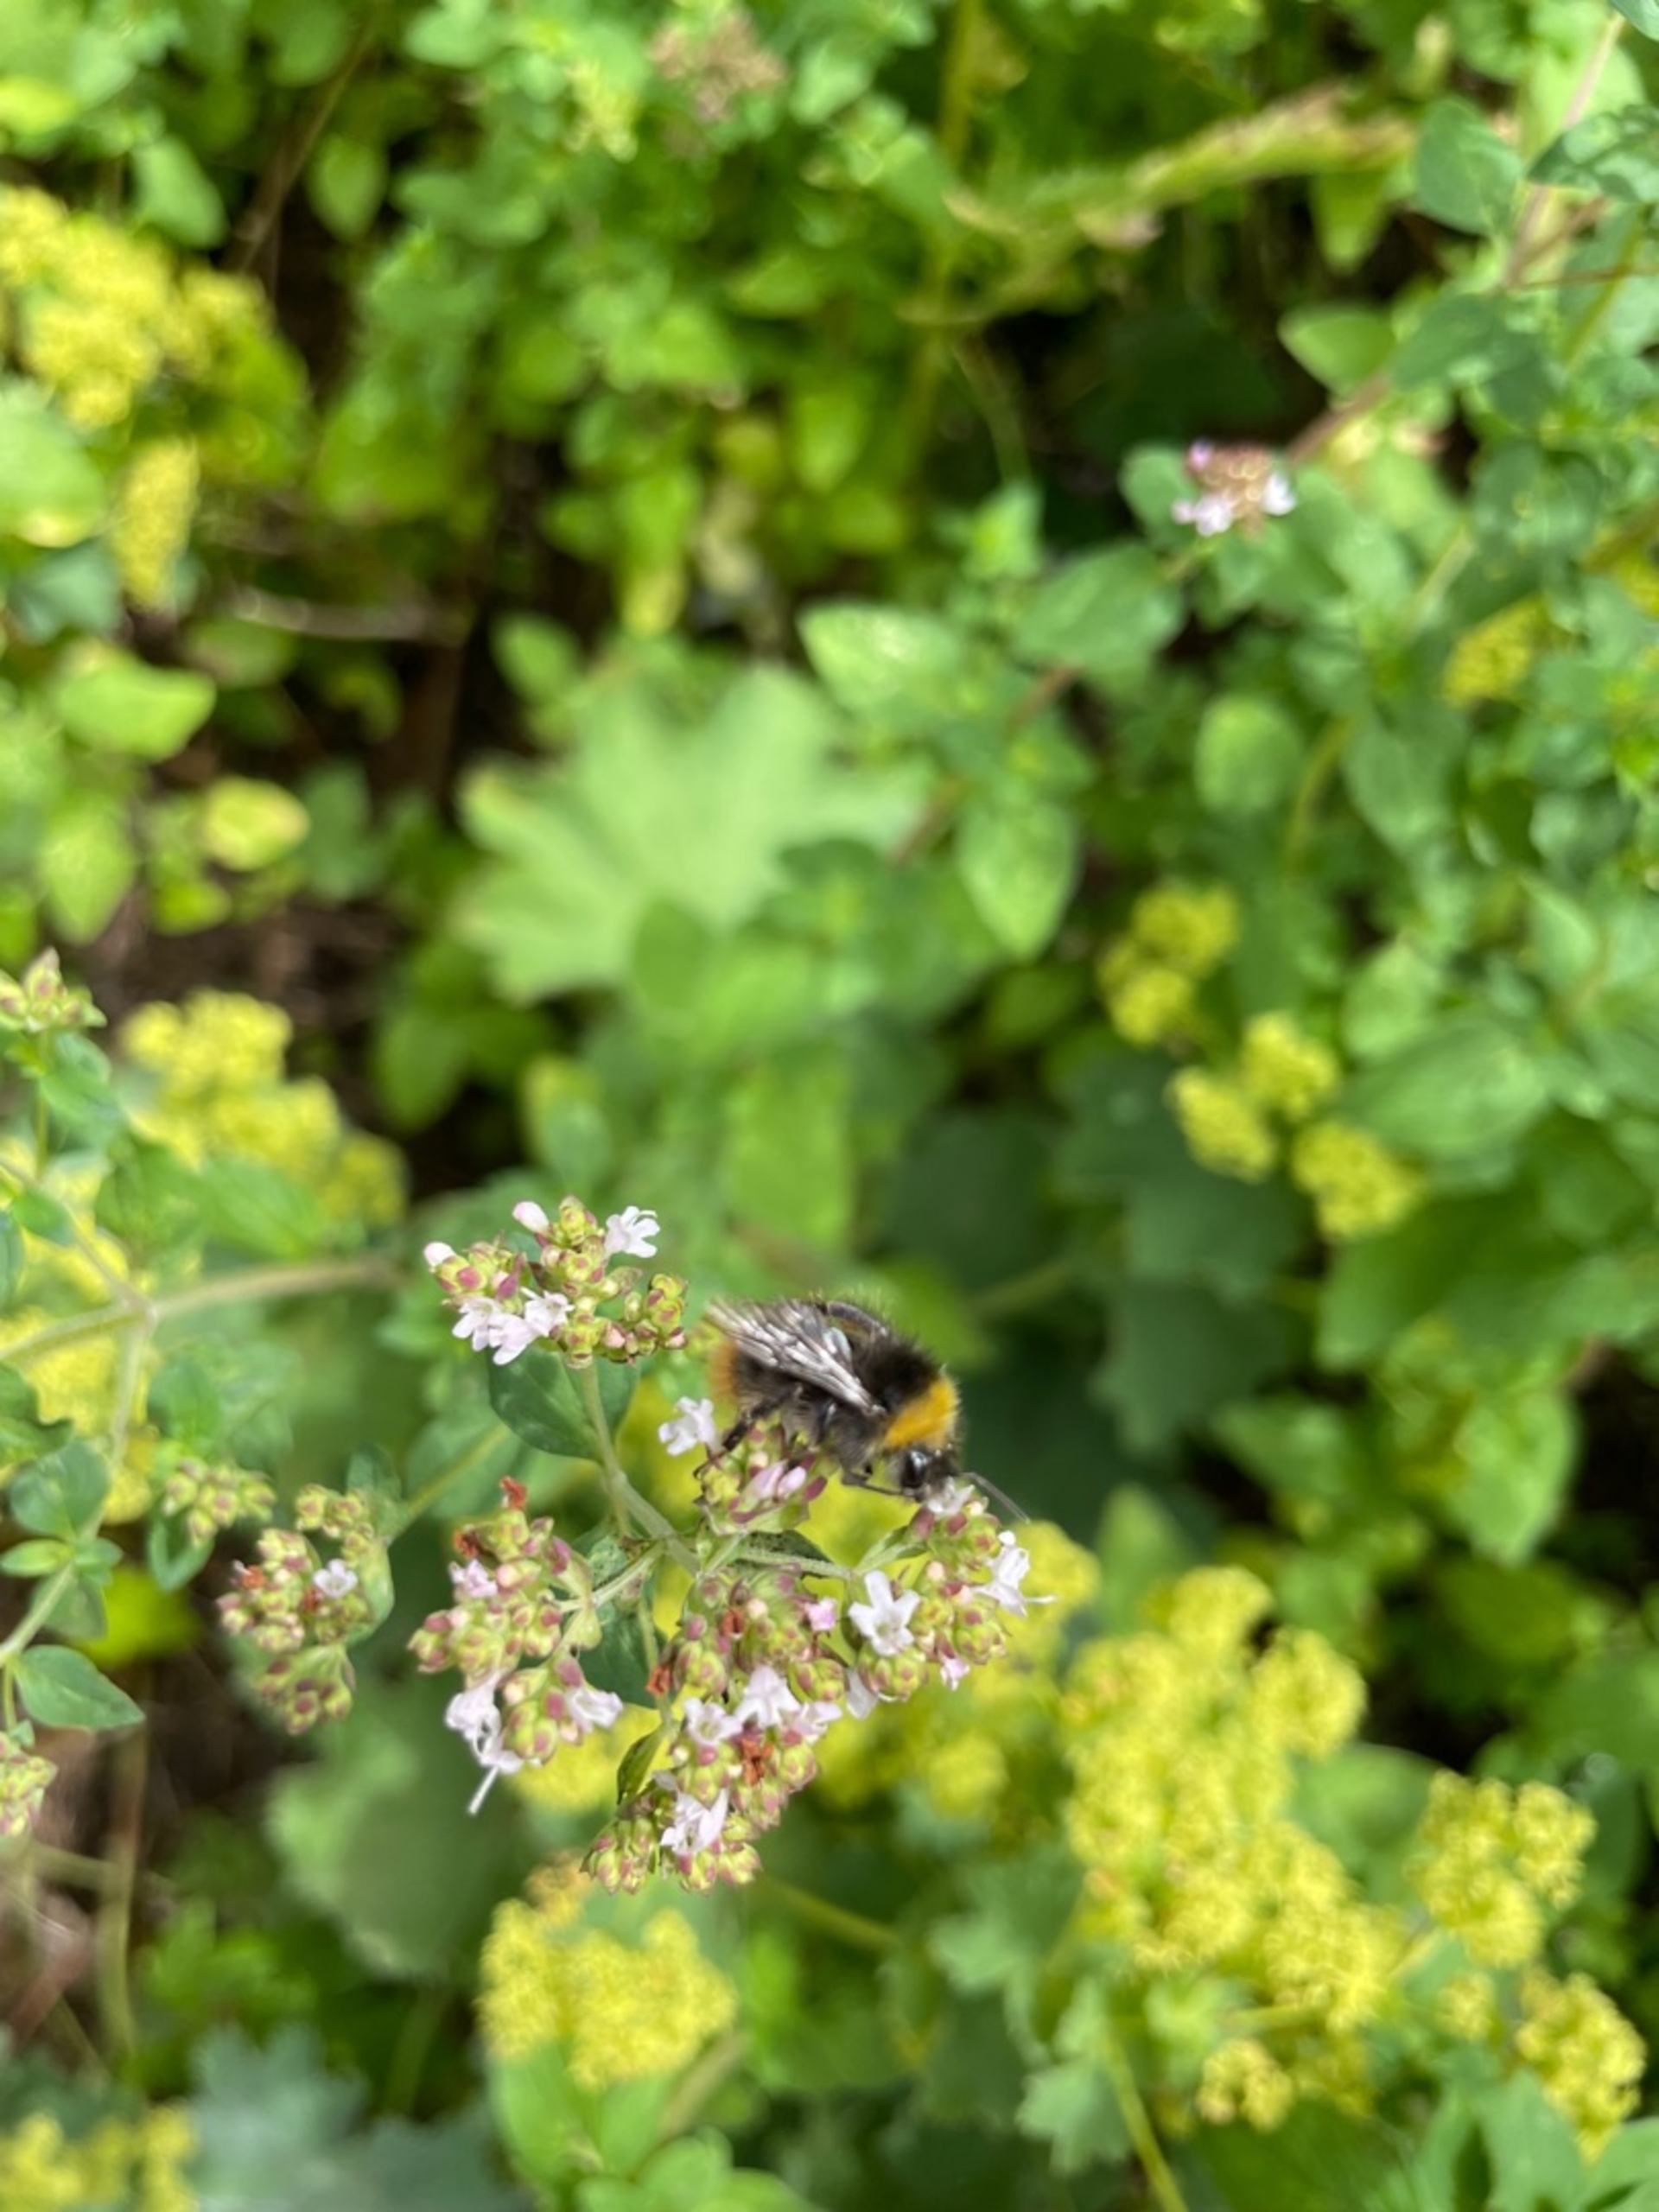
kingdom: Animalia
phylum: Arthropoda
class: Insecta
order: Hymenoptera
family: Apidae
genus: Bombus
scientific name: Bombus pratorum
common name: Lille skovhumle
